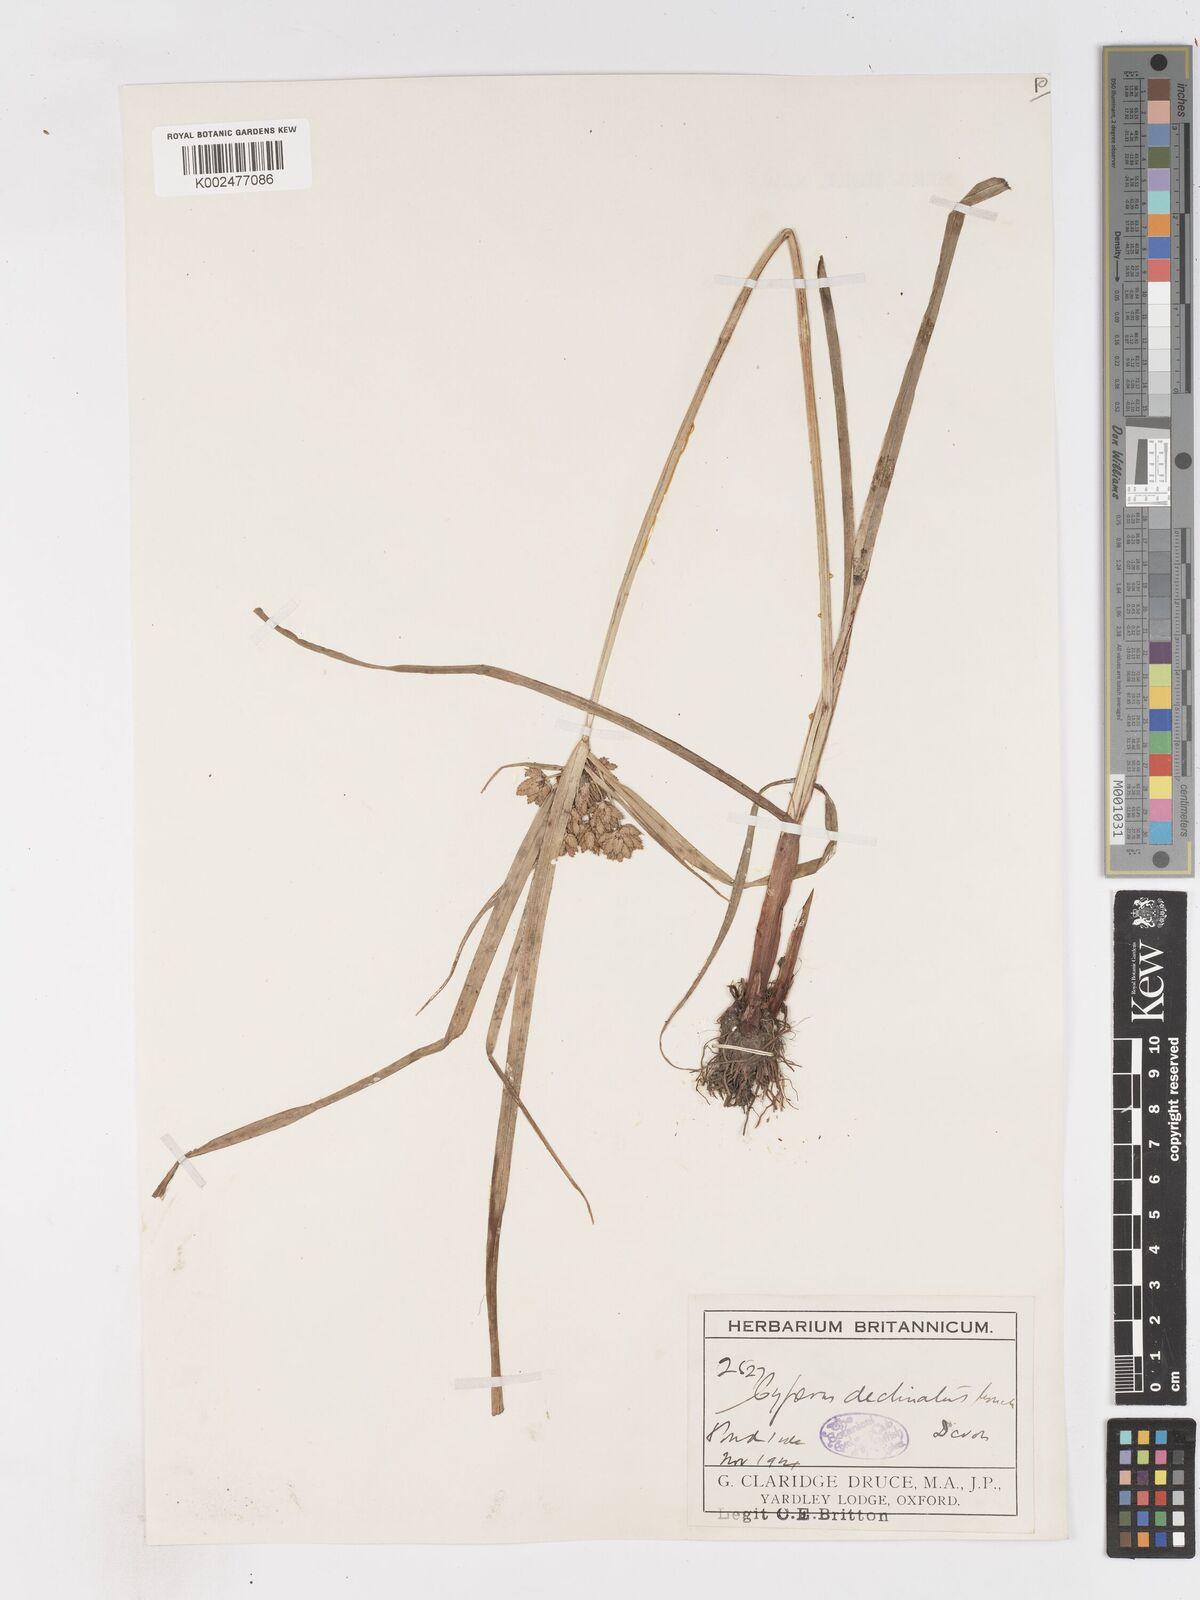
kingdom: Plantae
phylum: Tracheophyta
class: Liliopsida
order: Poales
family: Cyperaceae
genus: Cyperus
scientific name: Cyperus eragrostis
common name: Tall flatsedge
